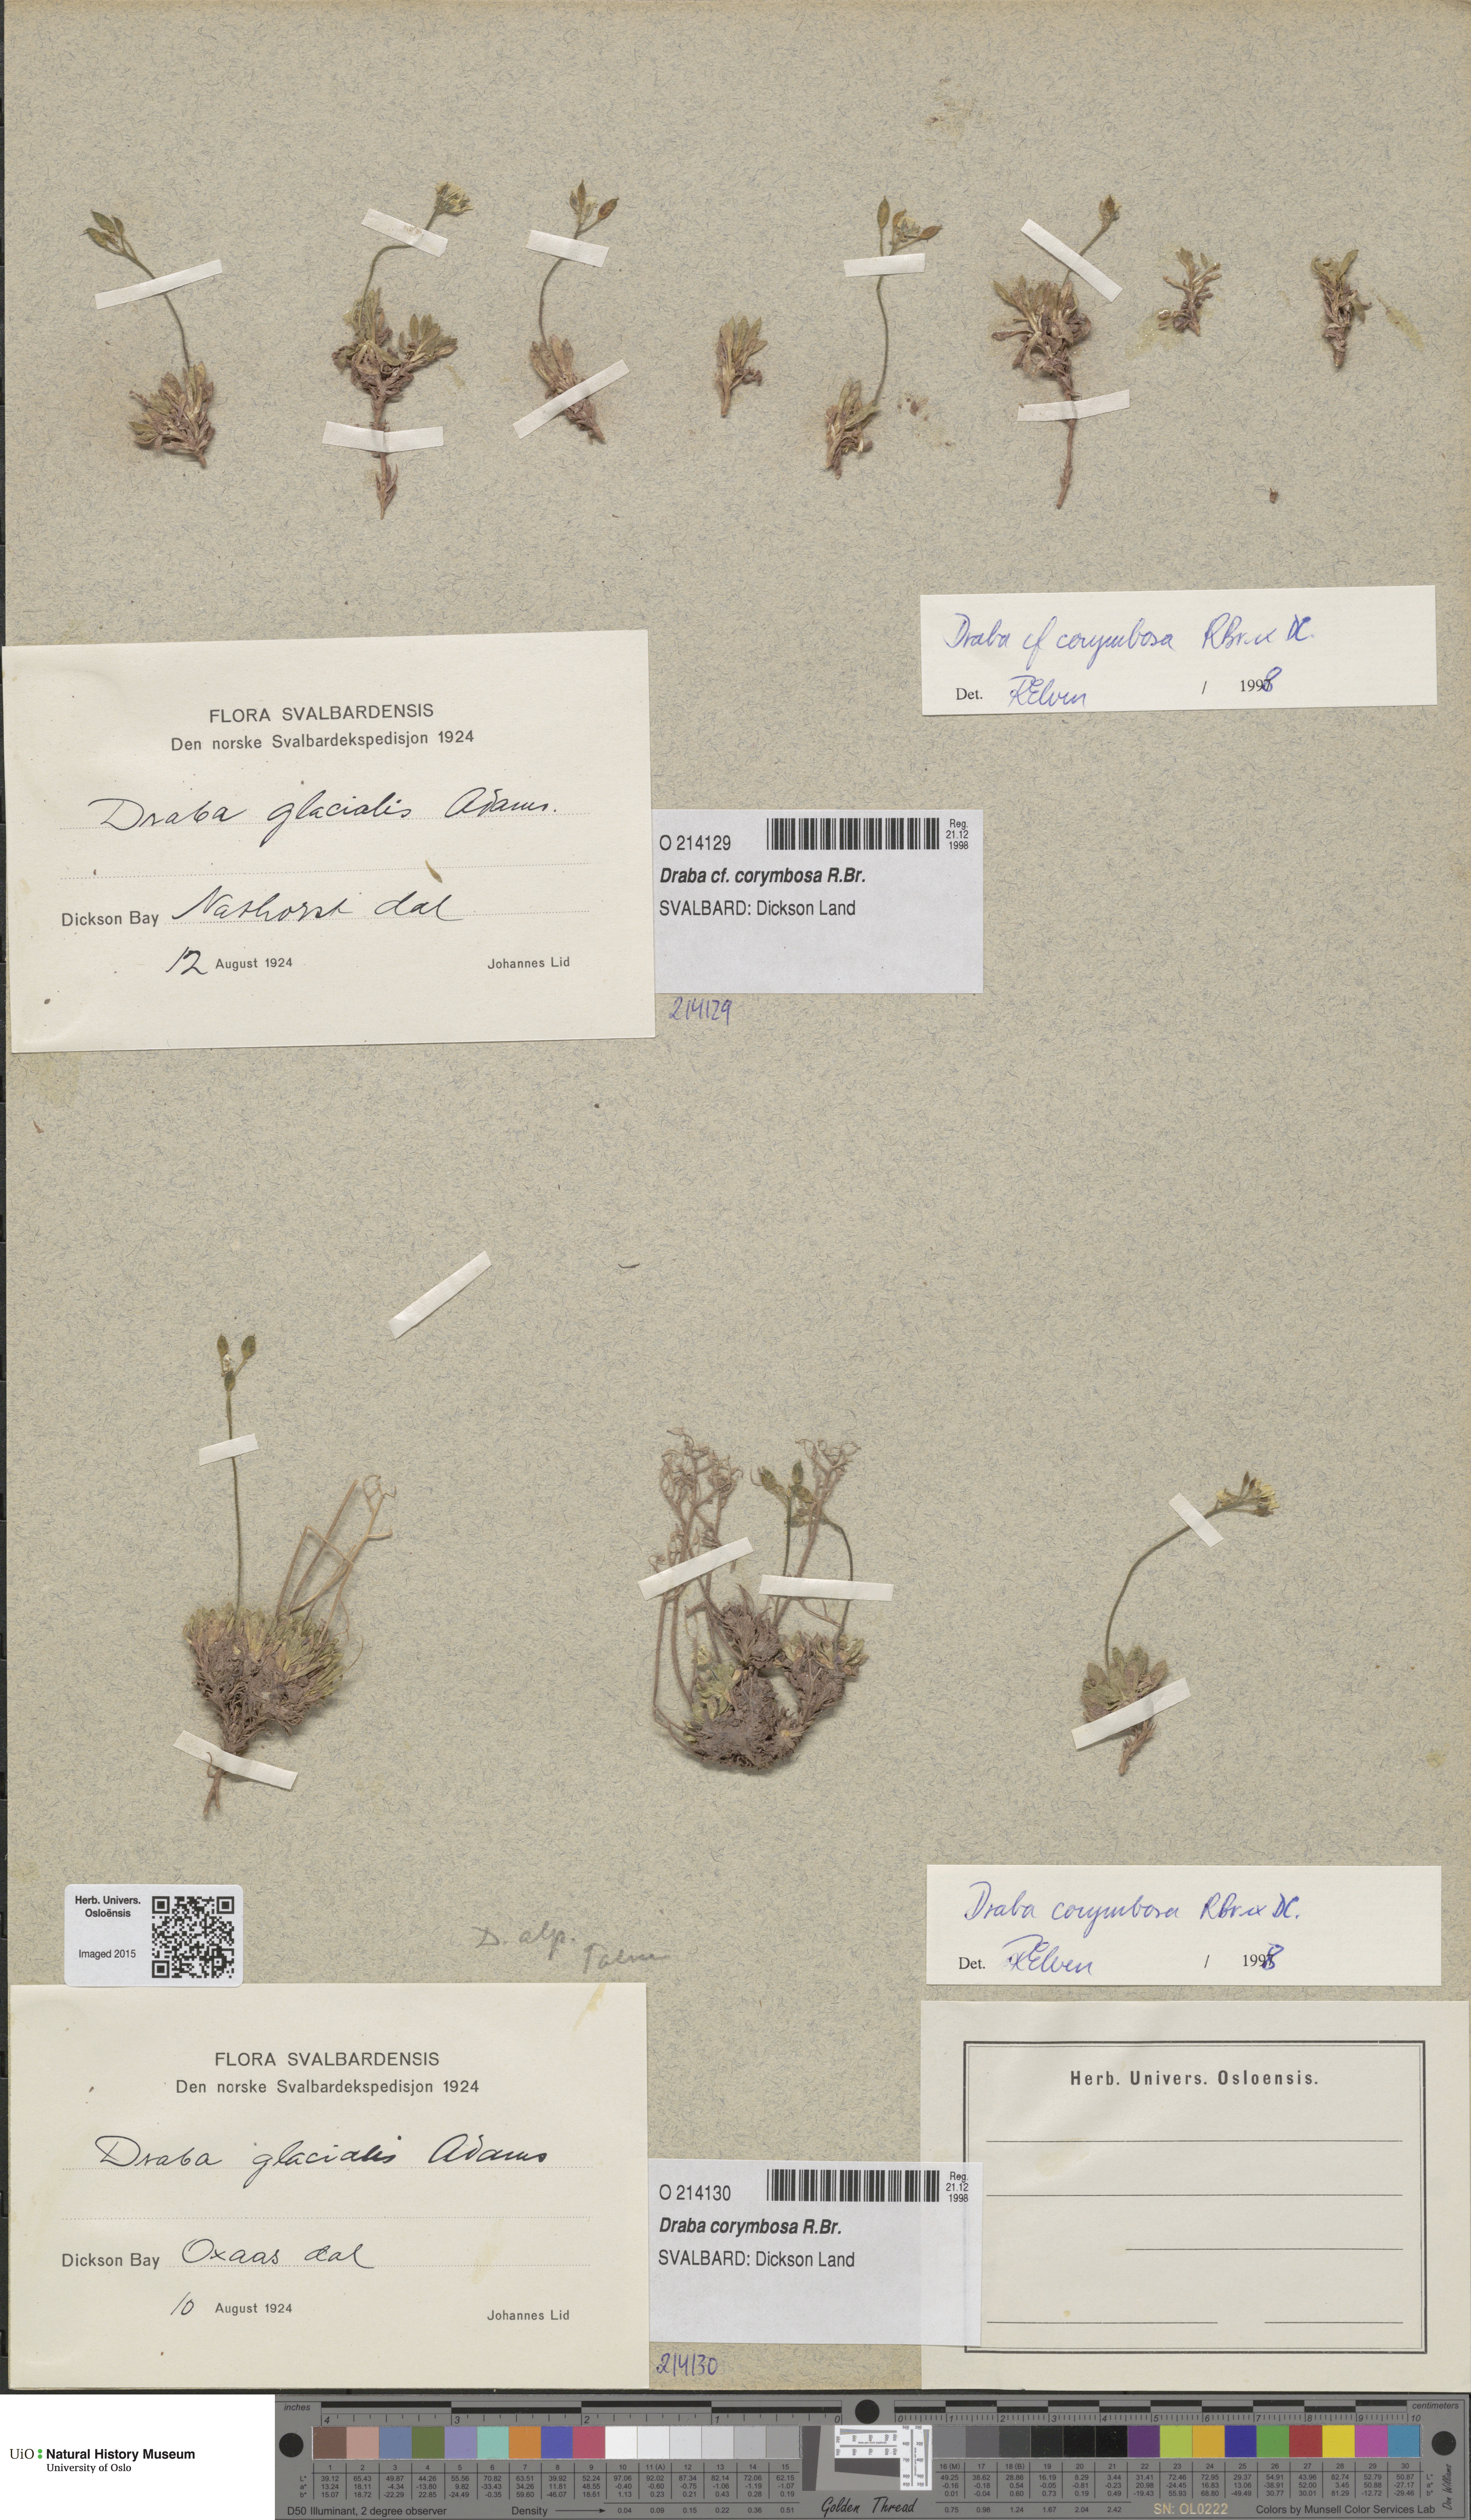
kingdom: Plantae
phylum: Tracheophyta
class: Magnoliopsida
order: Brassicales
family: Brassicaceae
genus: Draba
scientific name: Draba corymbosa
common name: Cushion whitlow-grass
